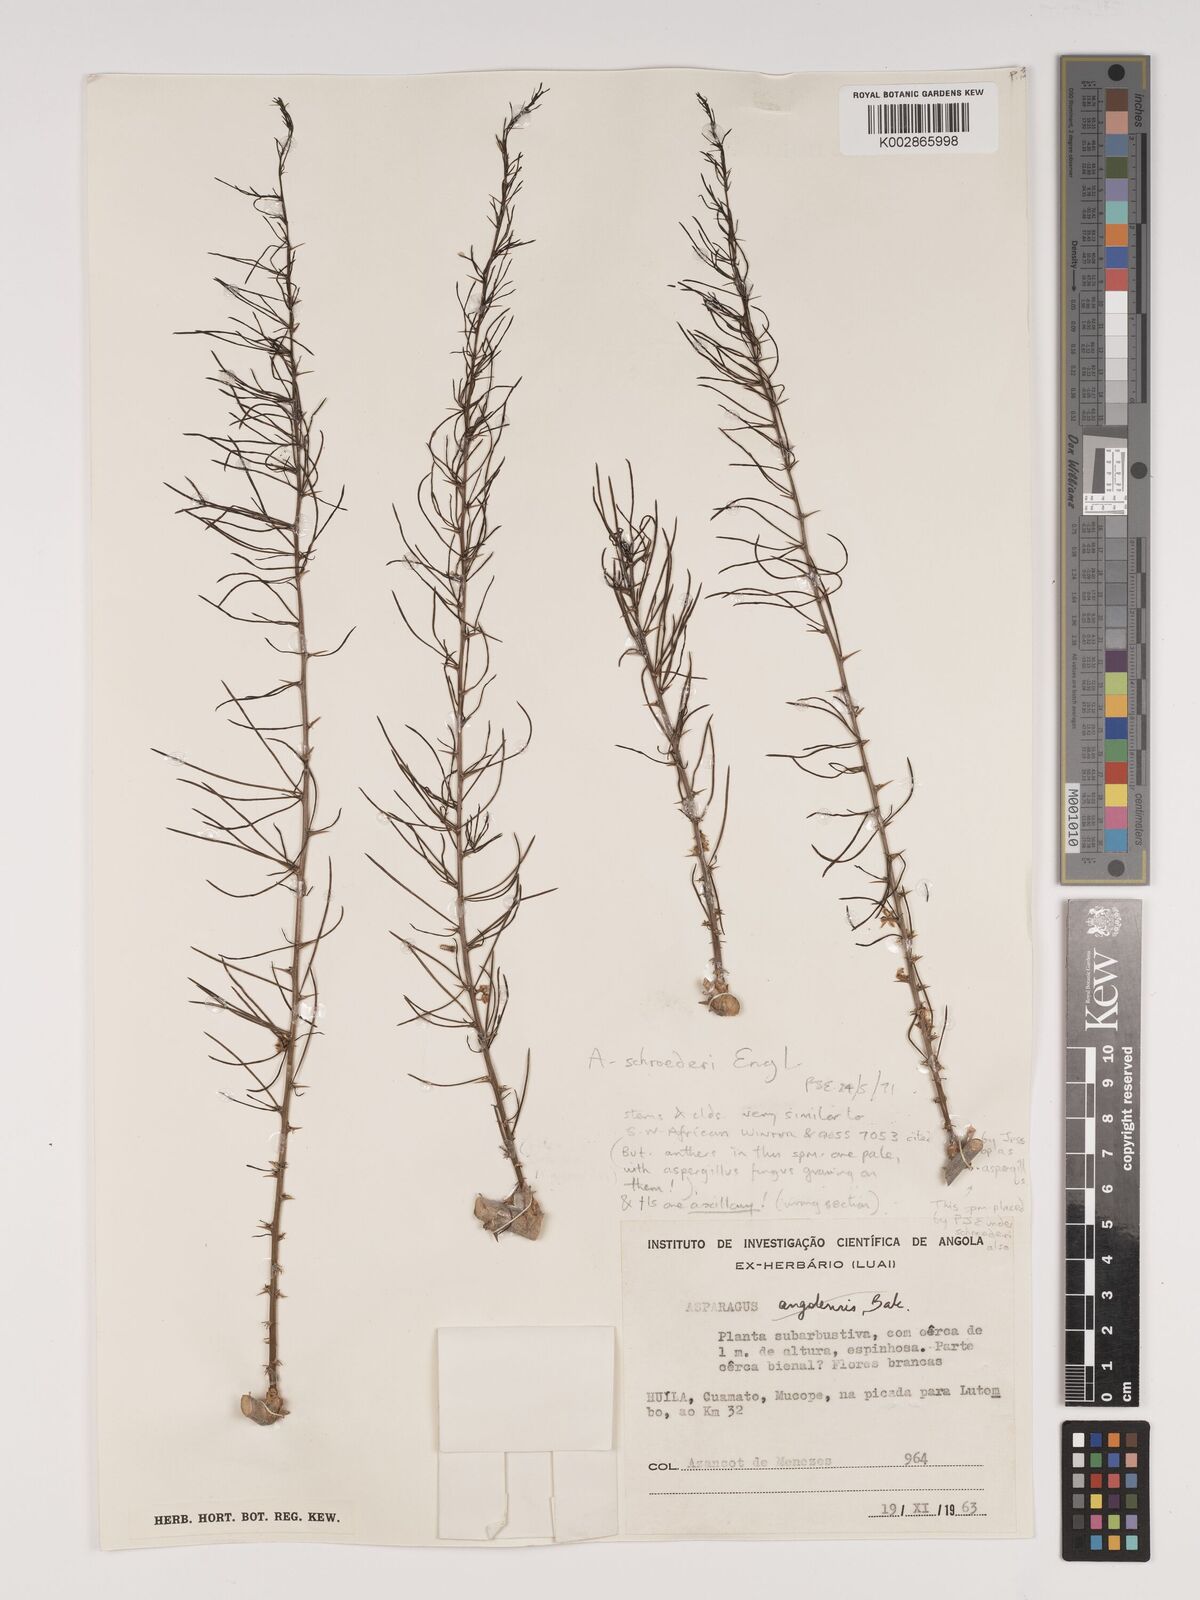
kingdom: Plantae
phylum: Tracheophyta
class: Liliopsida
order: Asparagales
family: Asparagaceae
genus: Asparagus
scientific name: Asparagus schroederi
